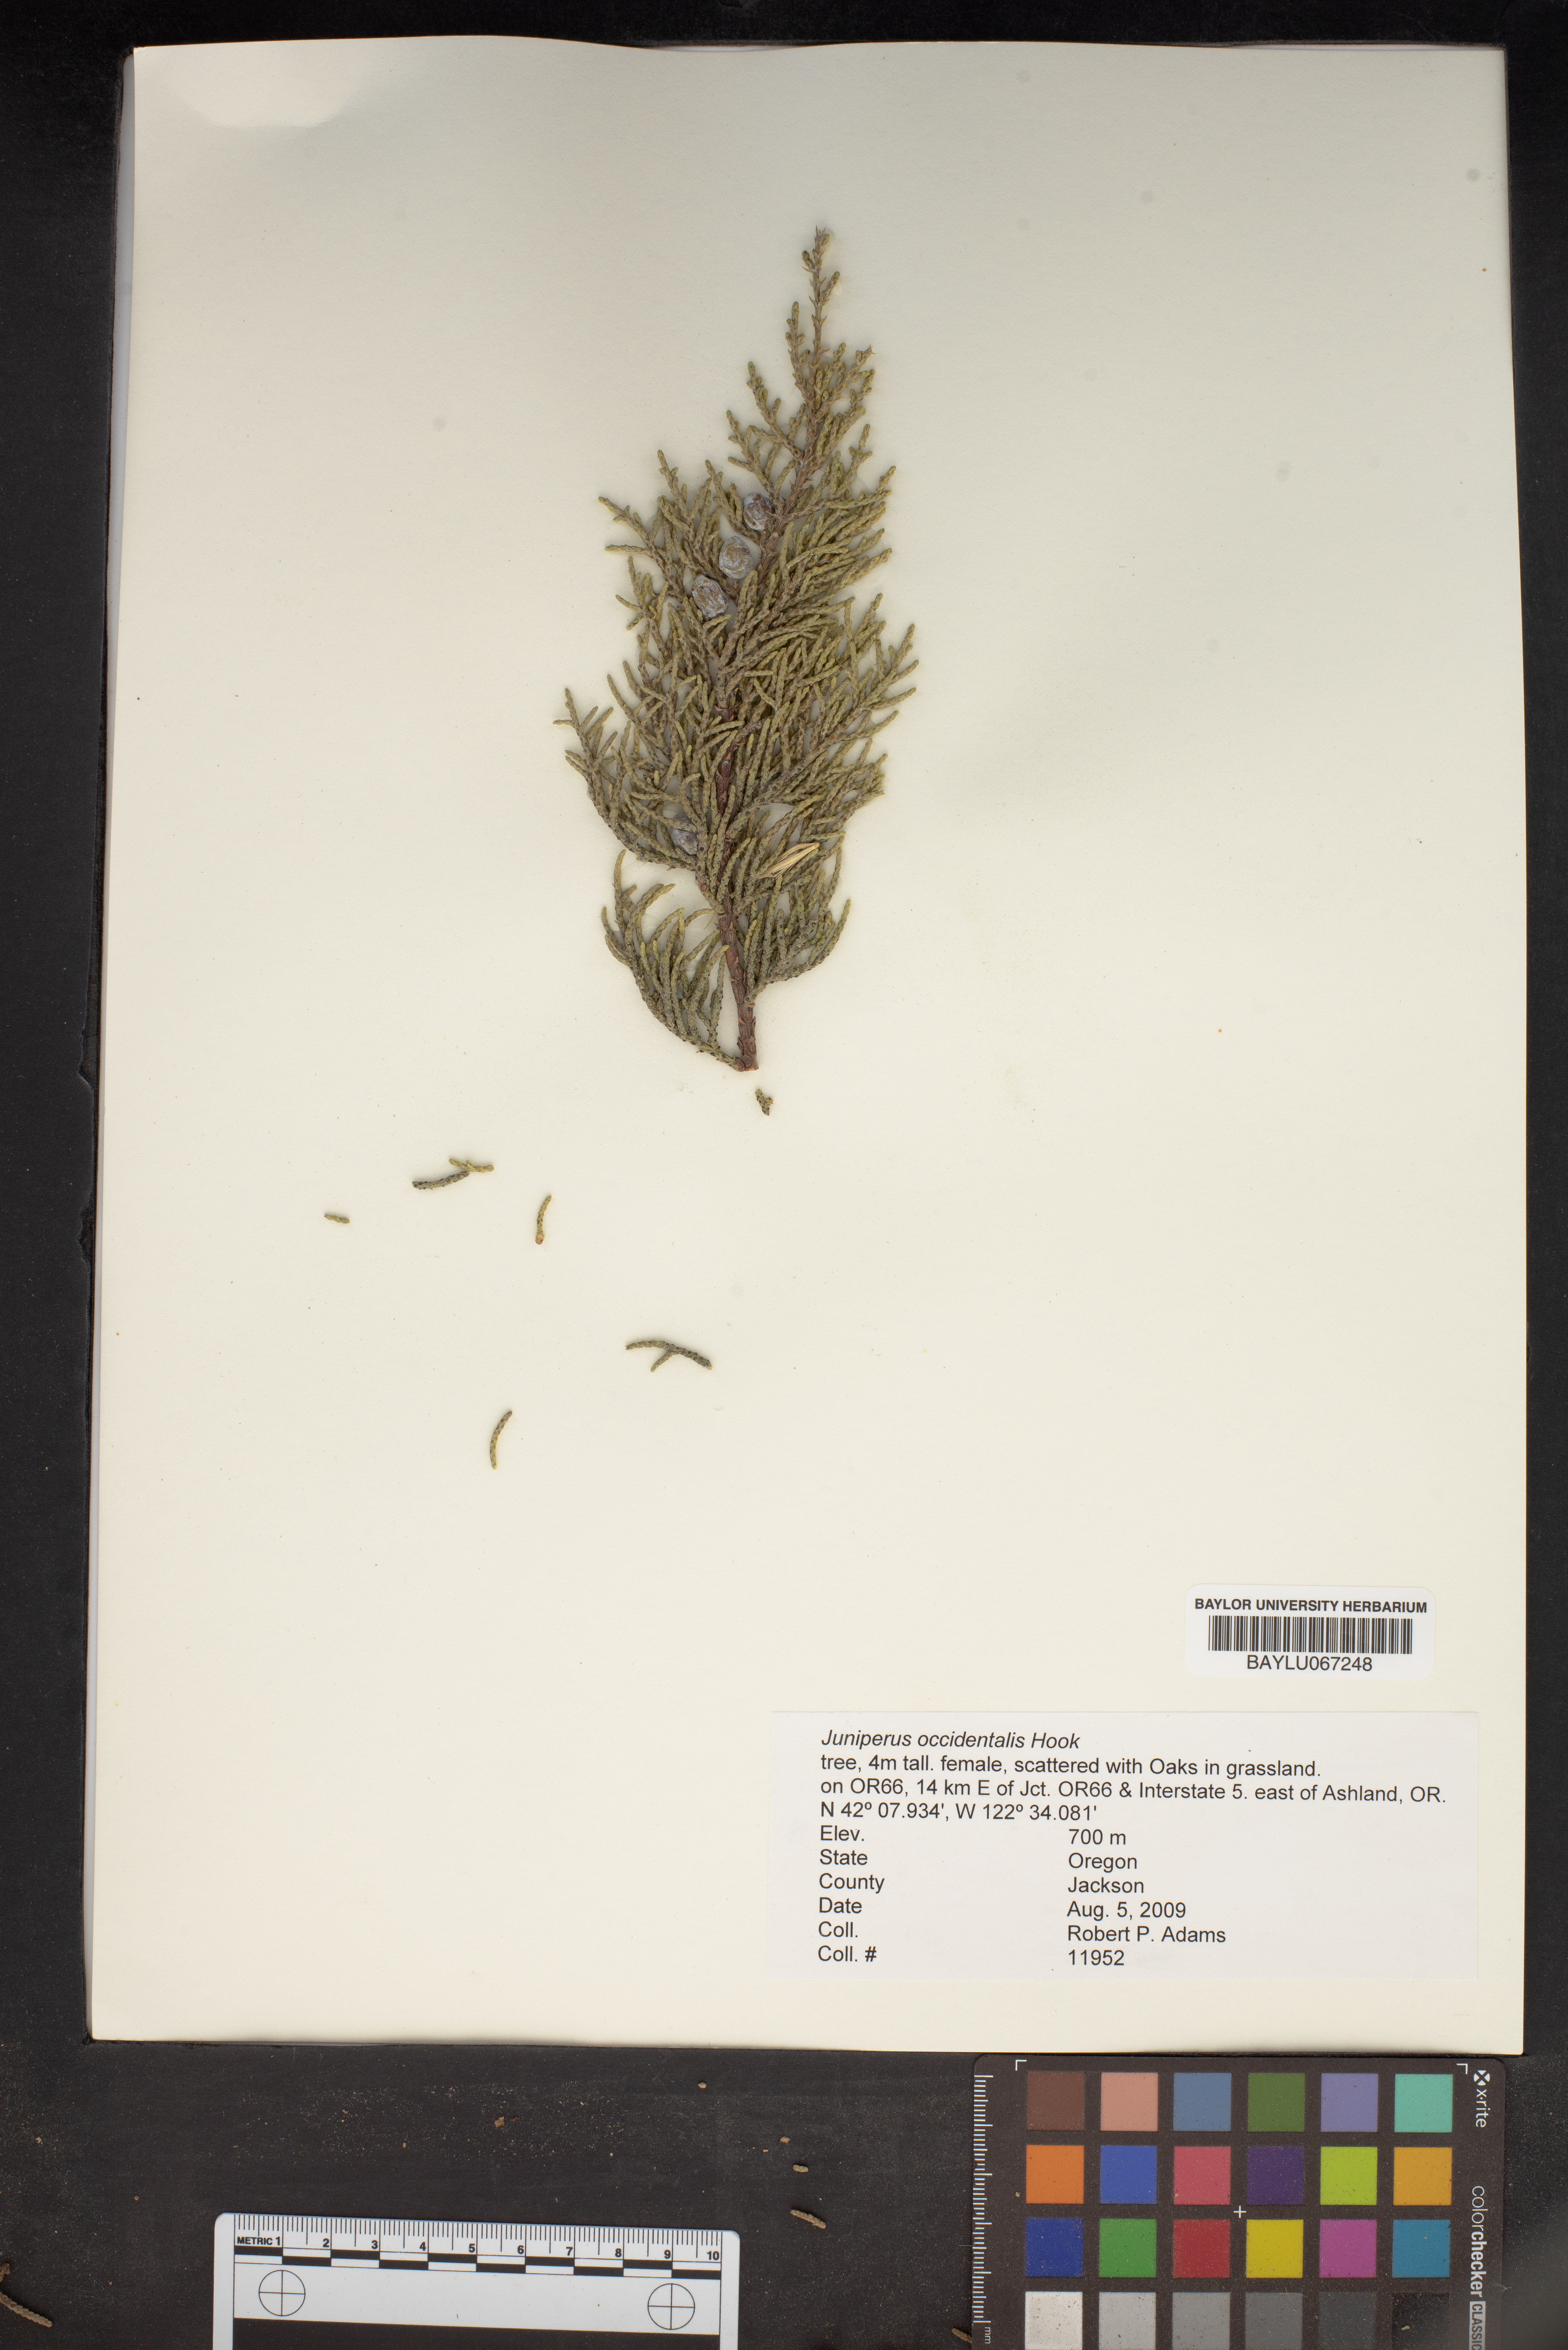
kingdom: Plantae
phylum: Tracheophyta
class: Pinopsida
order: Pinales
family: Cupressaceae
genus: Juniperus
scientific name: Juniperus occidentalis
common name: Western juniper
